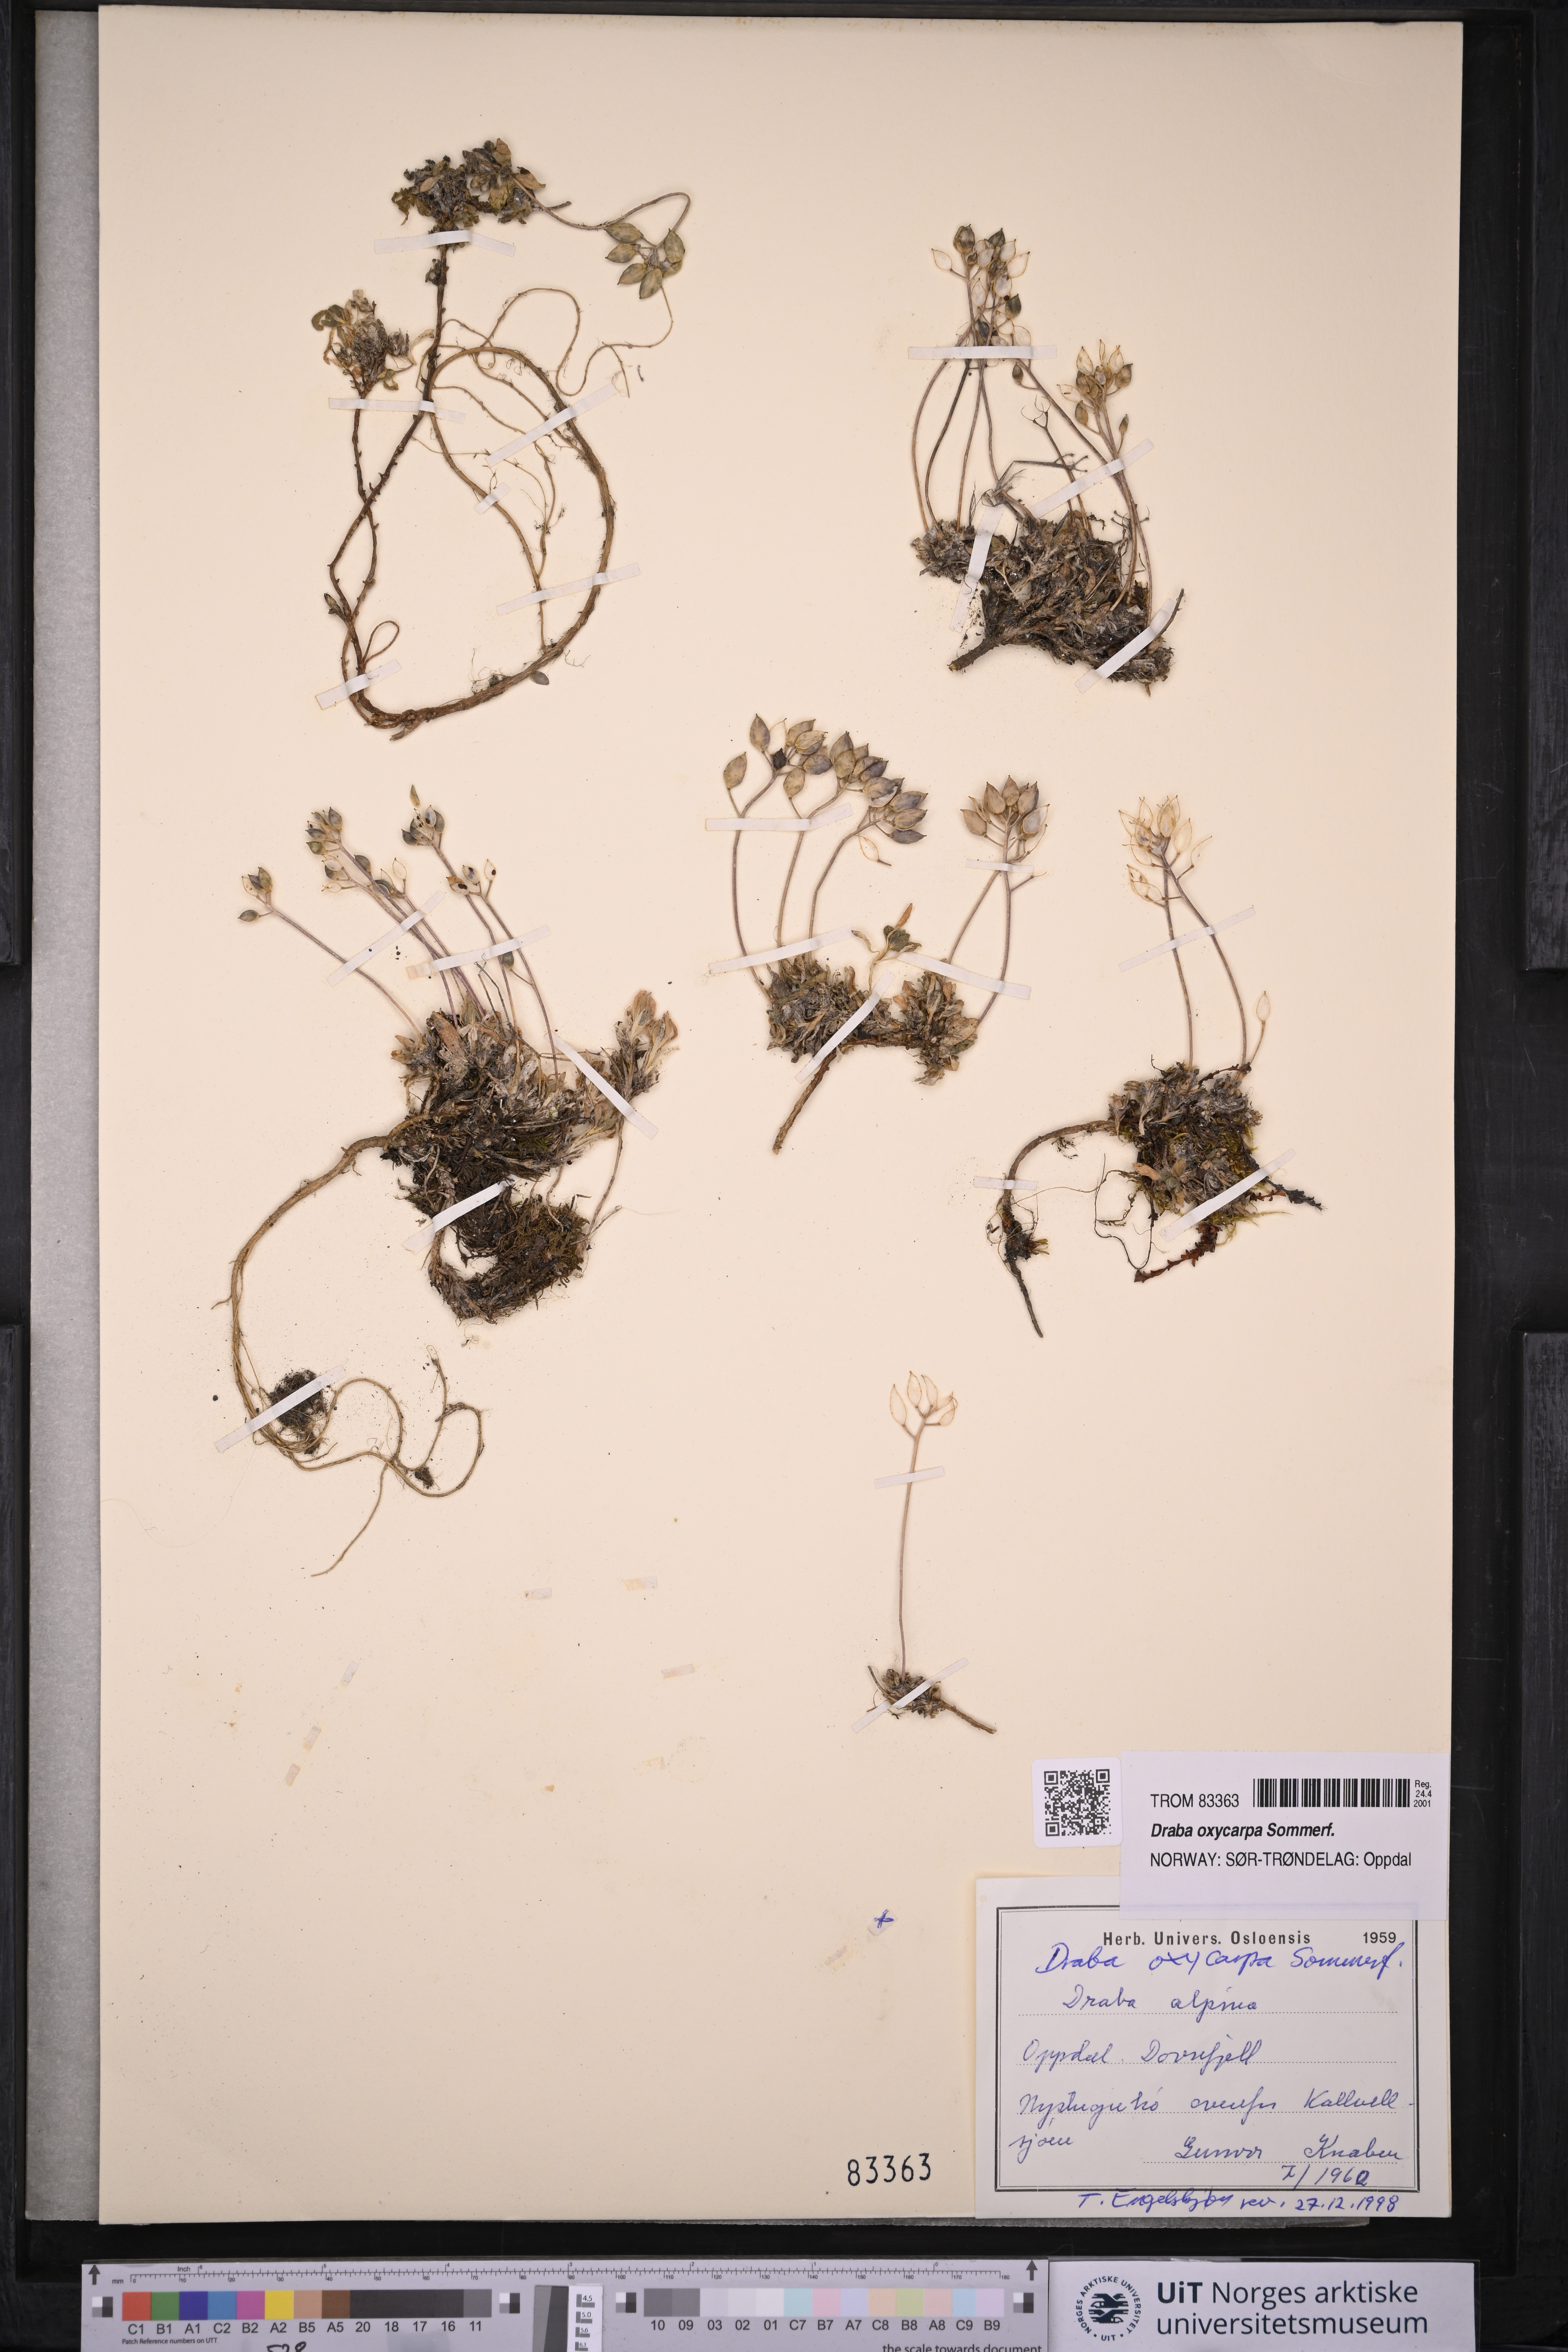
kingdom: Plantae
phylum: Tracheophyta
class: Magnoliopsida
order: Brassicales
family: Brassicaceae
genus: Draba
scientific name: Draba oxycarpa
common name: Sharp-fruited whitlow-grass
